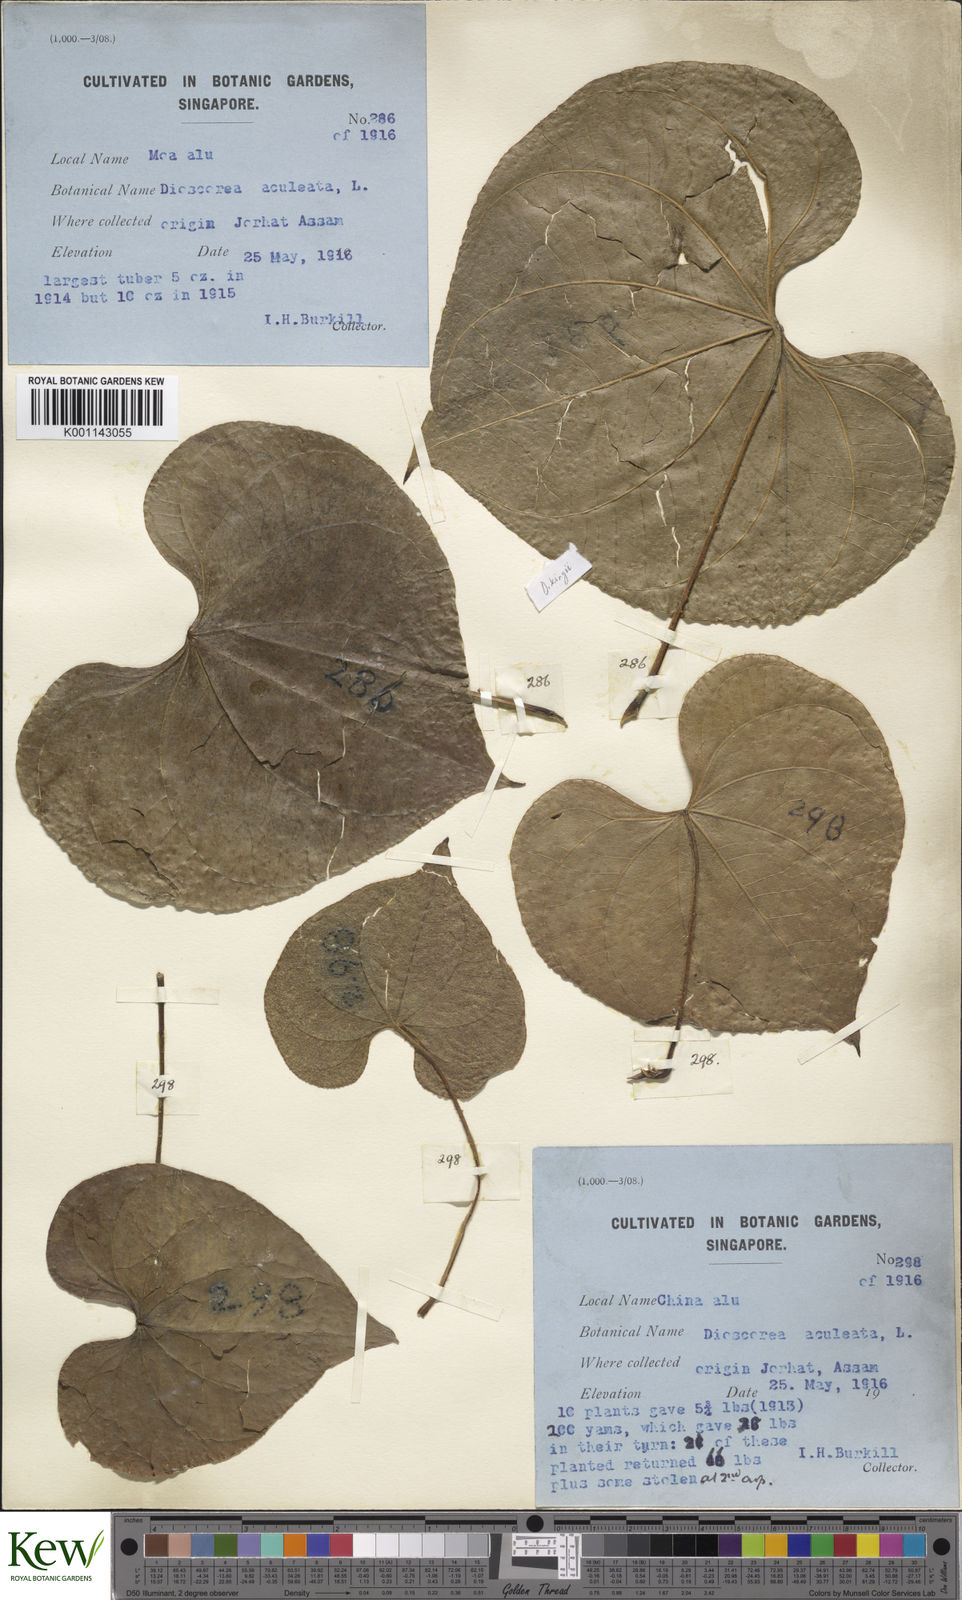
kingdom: Plantae
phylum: Tracheophyta
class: Liliopsida
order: Dioscoreales
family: Dioscoreaceae
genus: Dioscorea
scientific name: Dioscorea esculenta
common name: Chinese yam
